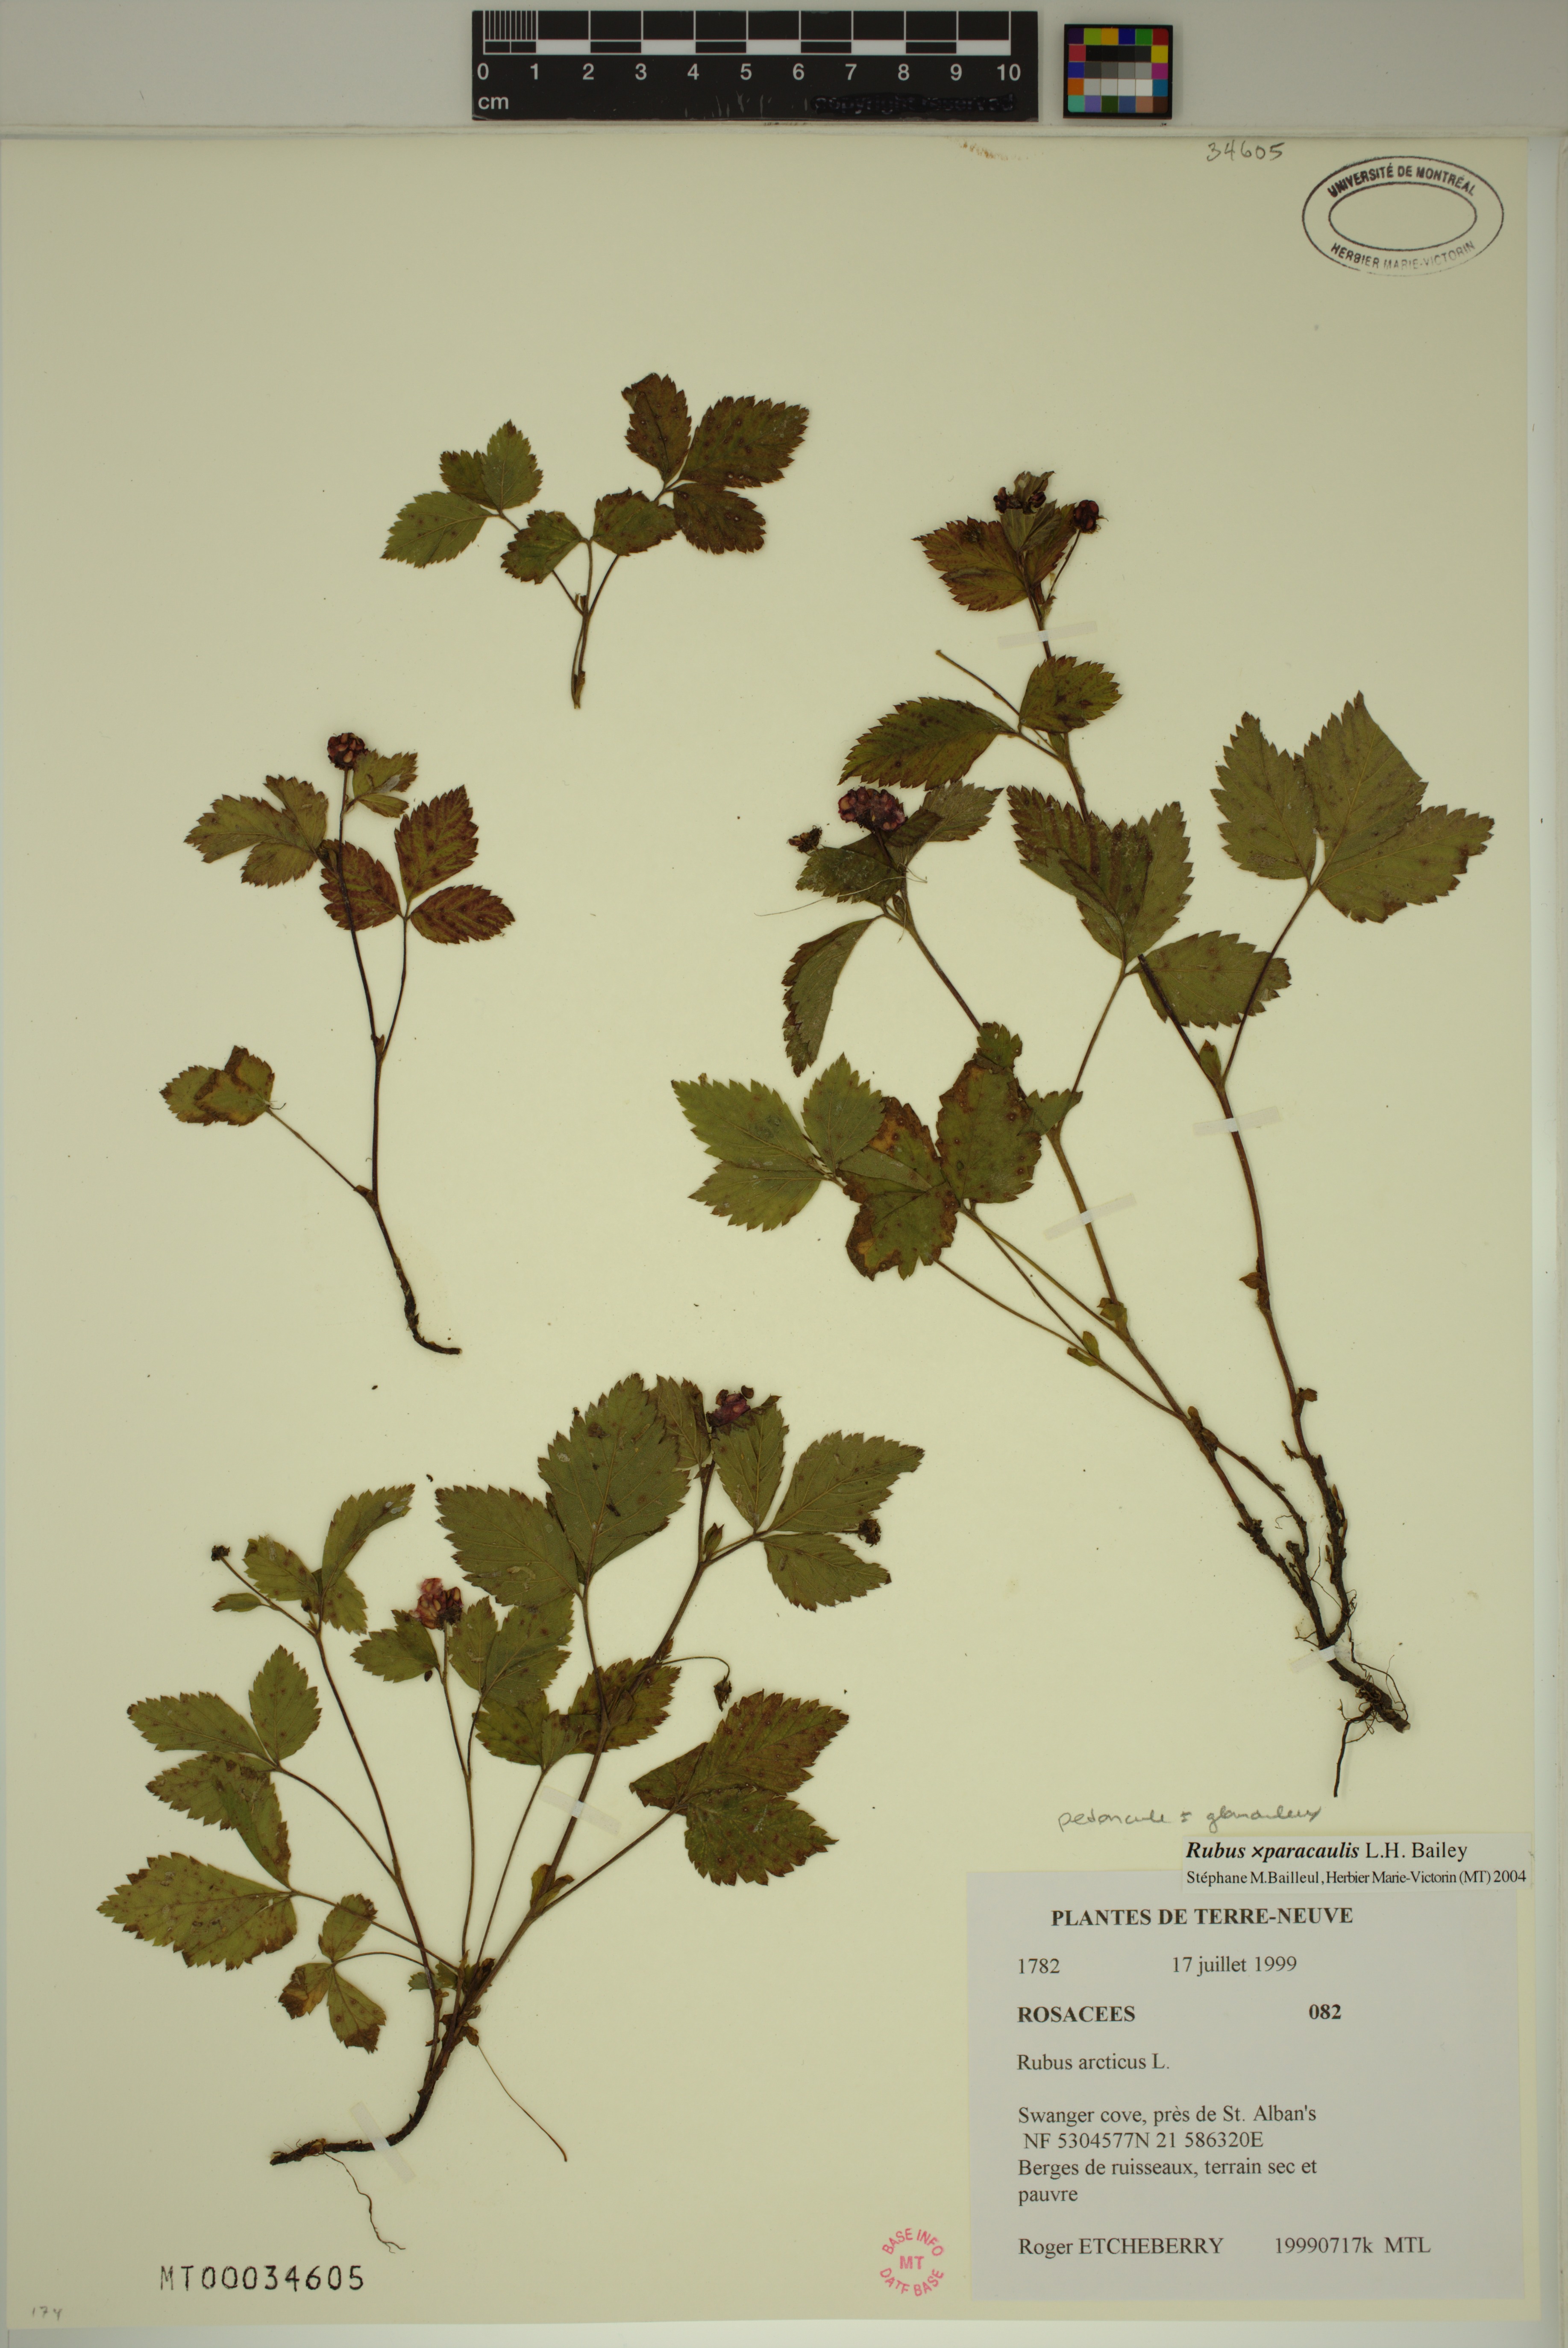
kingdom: Plantae
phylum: Tracheophyta
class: Magnoliopsida
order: Rosales
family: Rosaceae
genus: Rubus
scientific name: Rubus paracaulis
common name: Dwarf white-flowered raspberry
